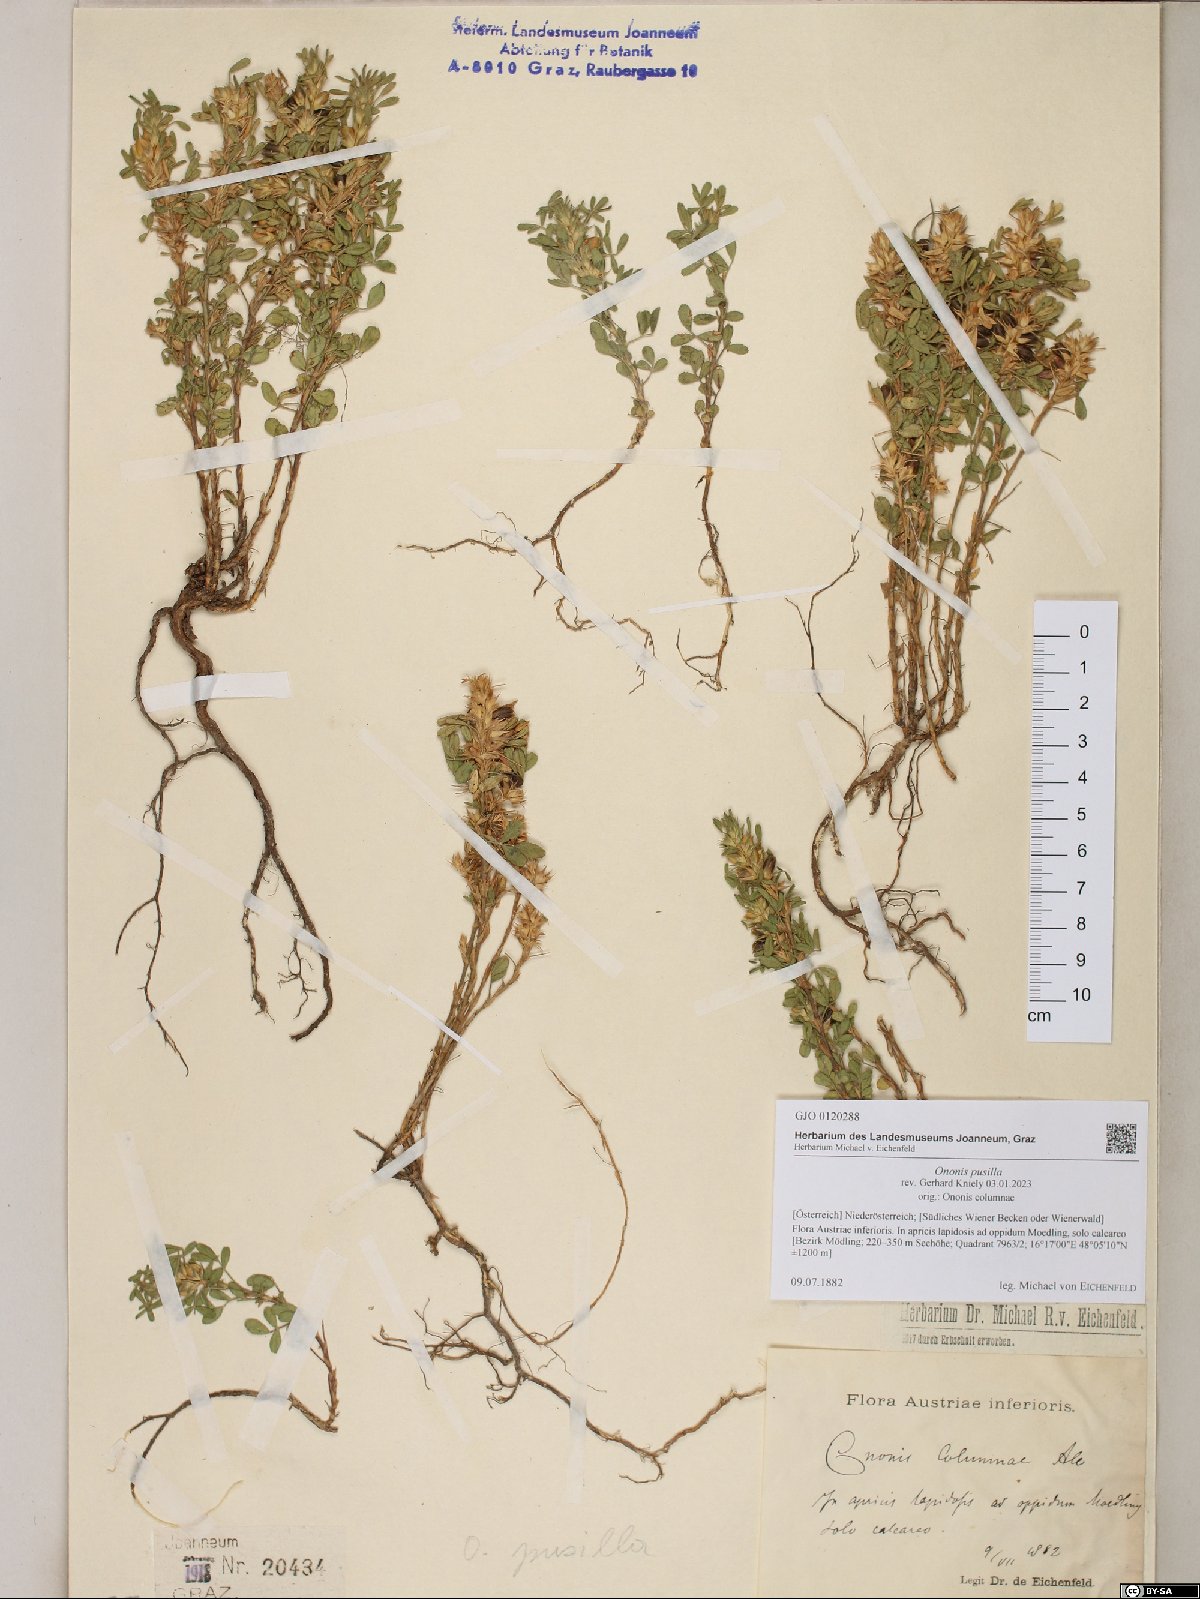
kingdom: Plantae
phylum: Tracheophyta
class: Magnoliopsida
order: Fabales
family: Fabaceae
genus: Ononis
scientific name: Ononis pusilla
